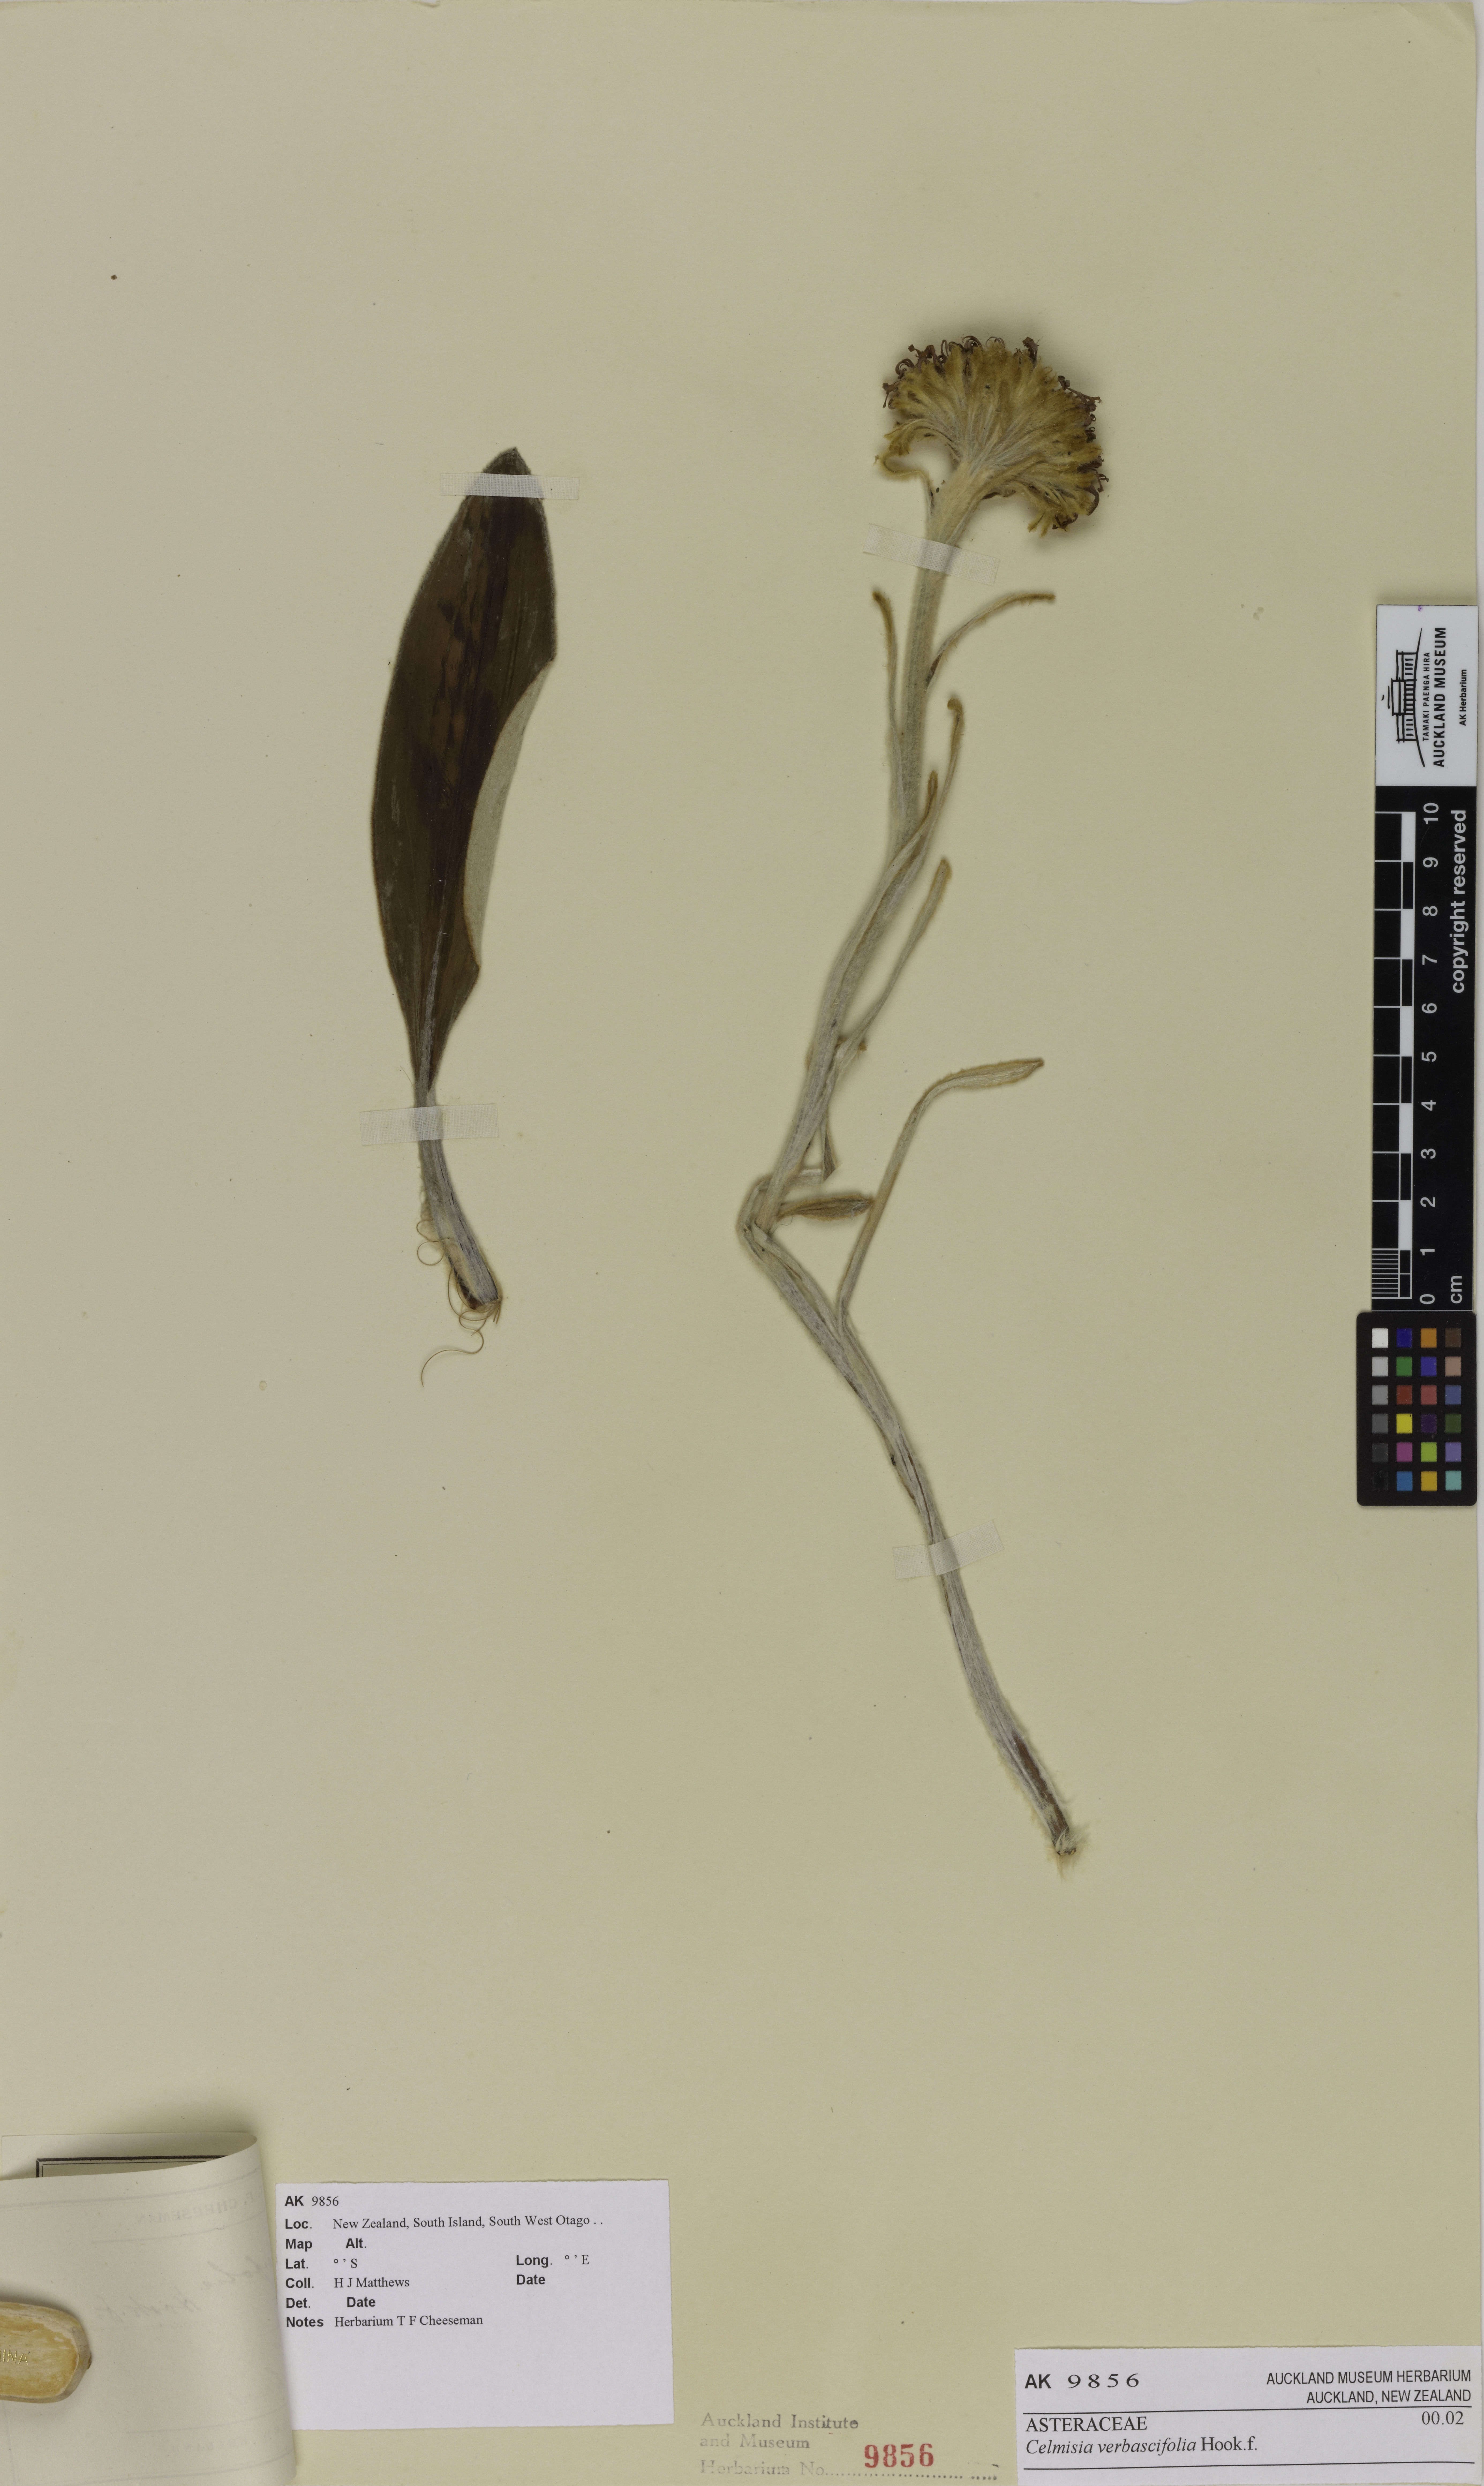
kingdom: Plantae
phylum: Tracheophyta
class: Magnoliopsida
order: Asterales
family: Asteraceae
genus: Celmisia
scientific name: Celmisia verbascifolia
